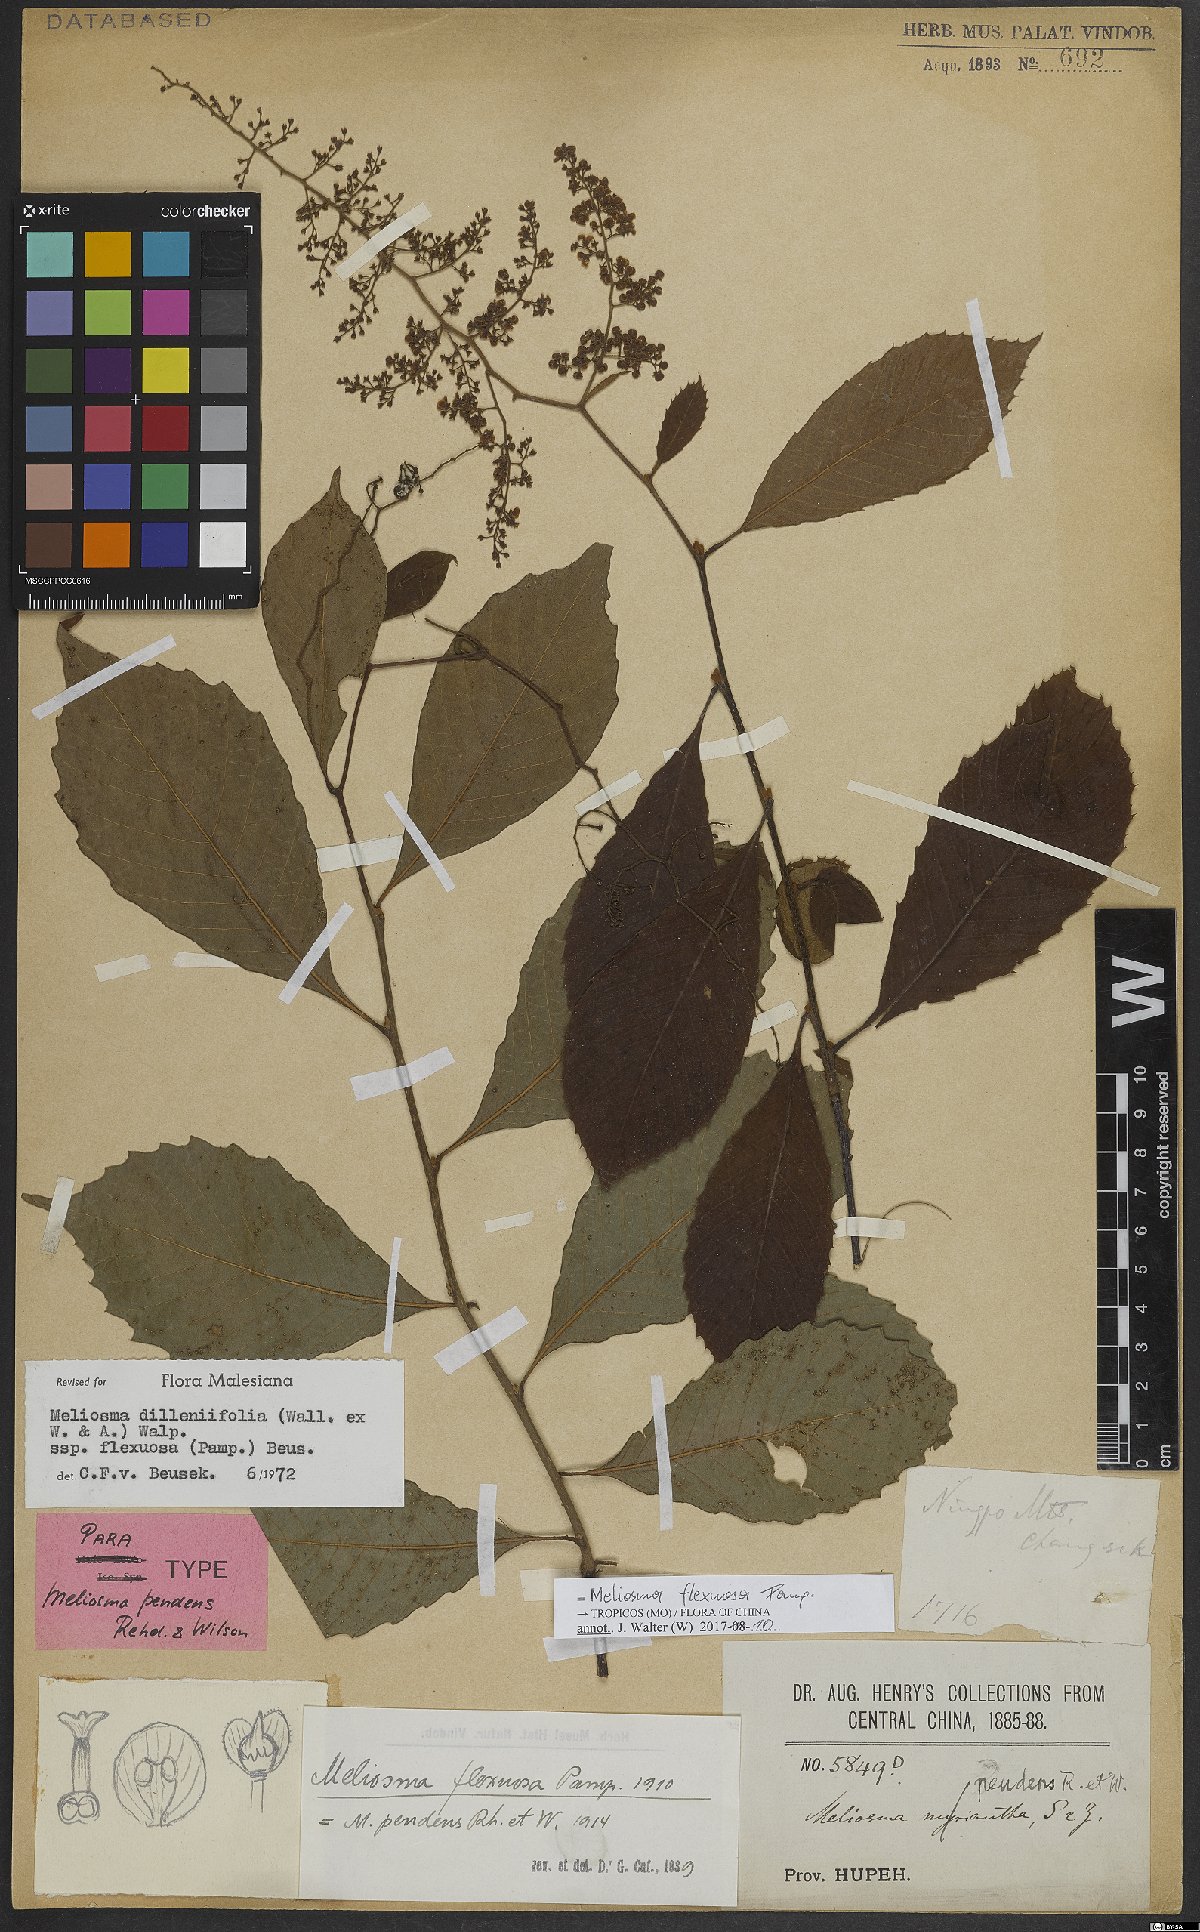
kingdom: Plantae
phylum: Tracheophyta
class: Magnoliopsida
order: Proteales
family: Sabiaceae
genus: Meliosma
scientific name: Meliosma flexuosa
